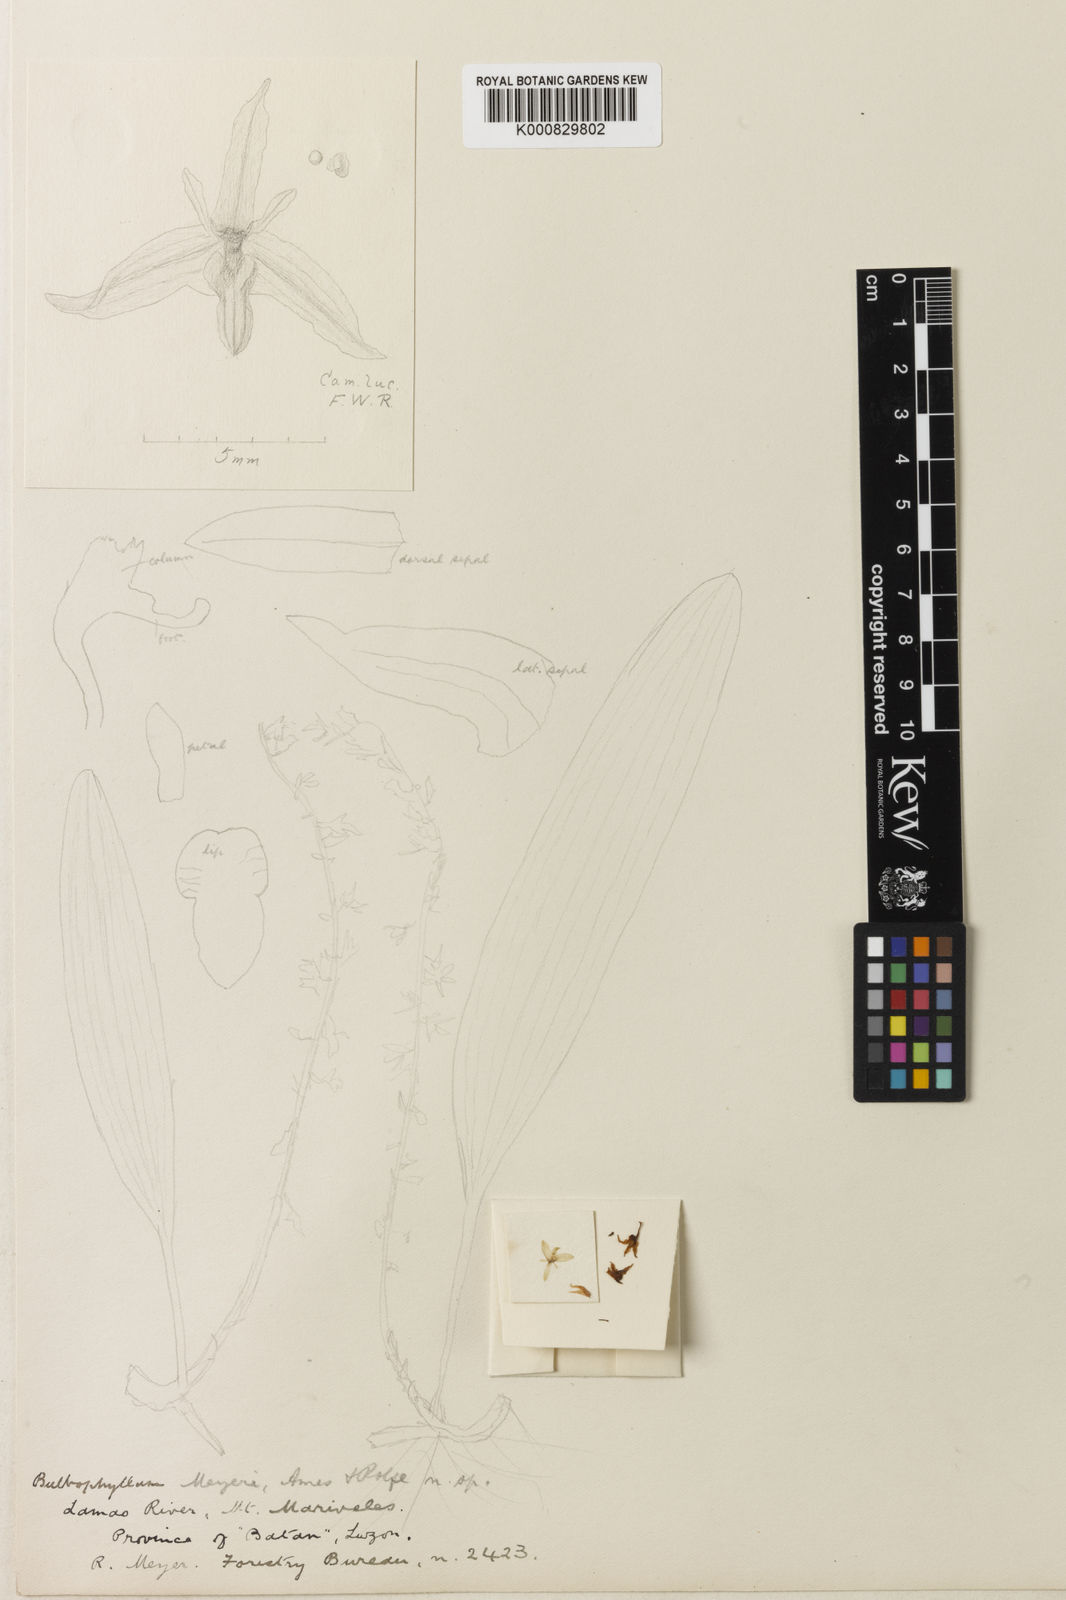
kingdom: Plantae
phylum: Tracheophyta
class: Liliopsida
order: Asparagales
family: Orchidaceae
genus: Bulbophyllum
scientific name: Bulbophyllum
